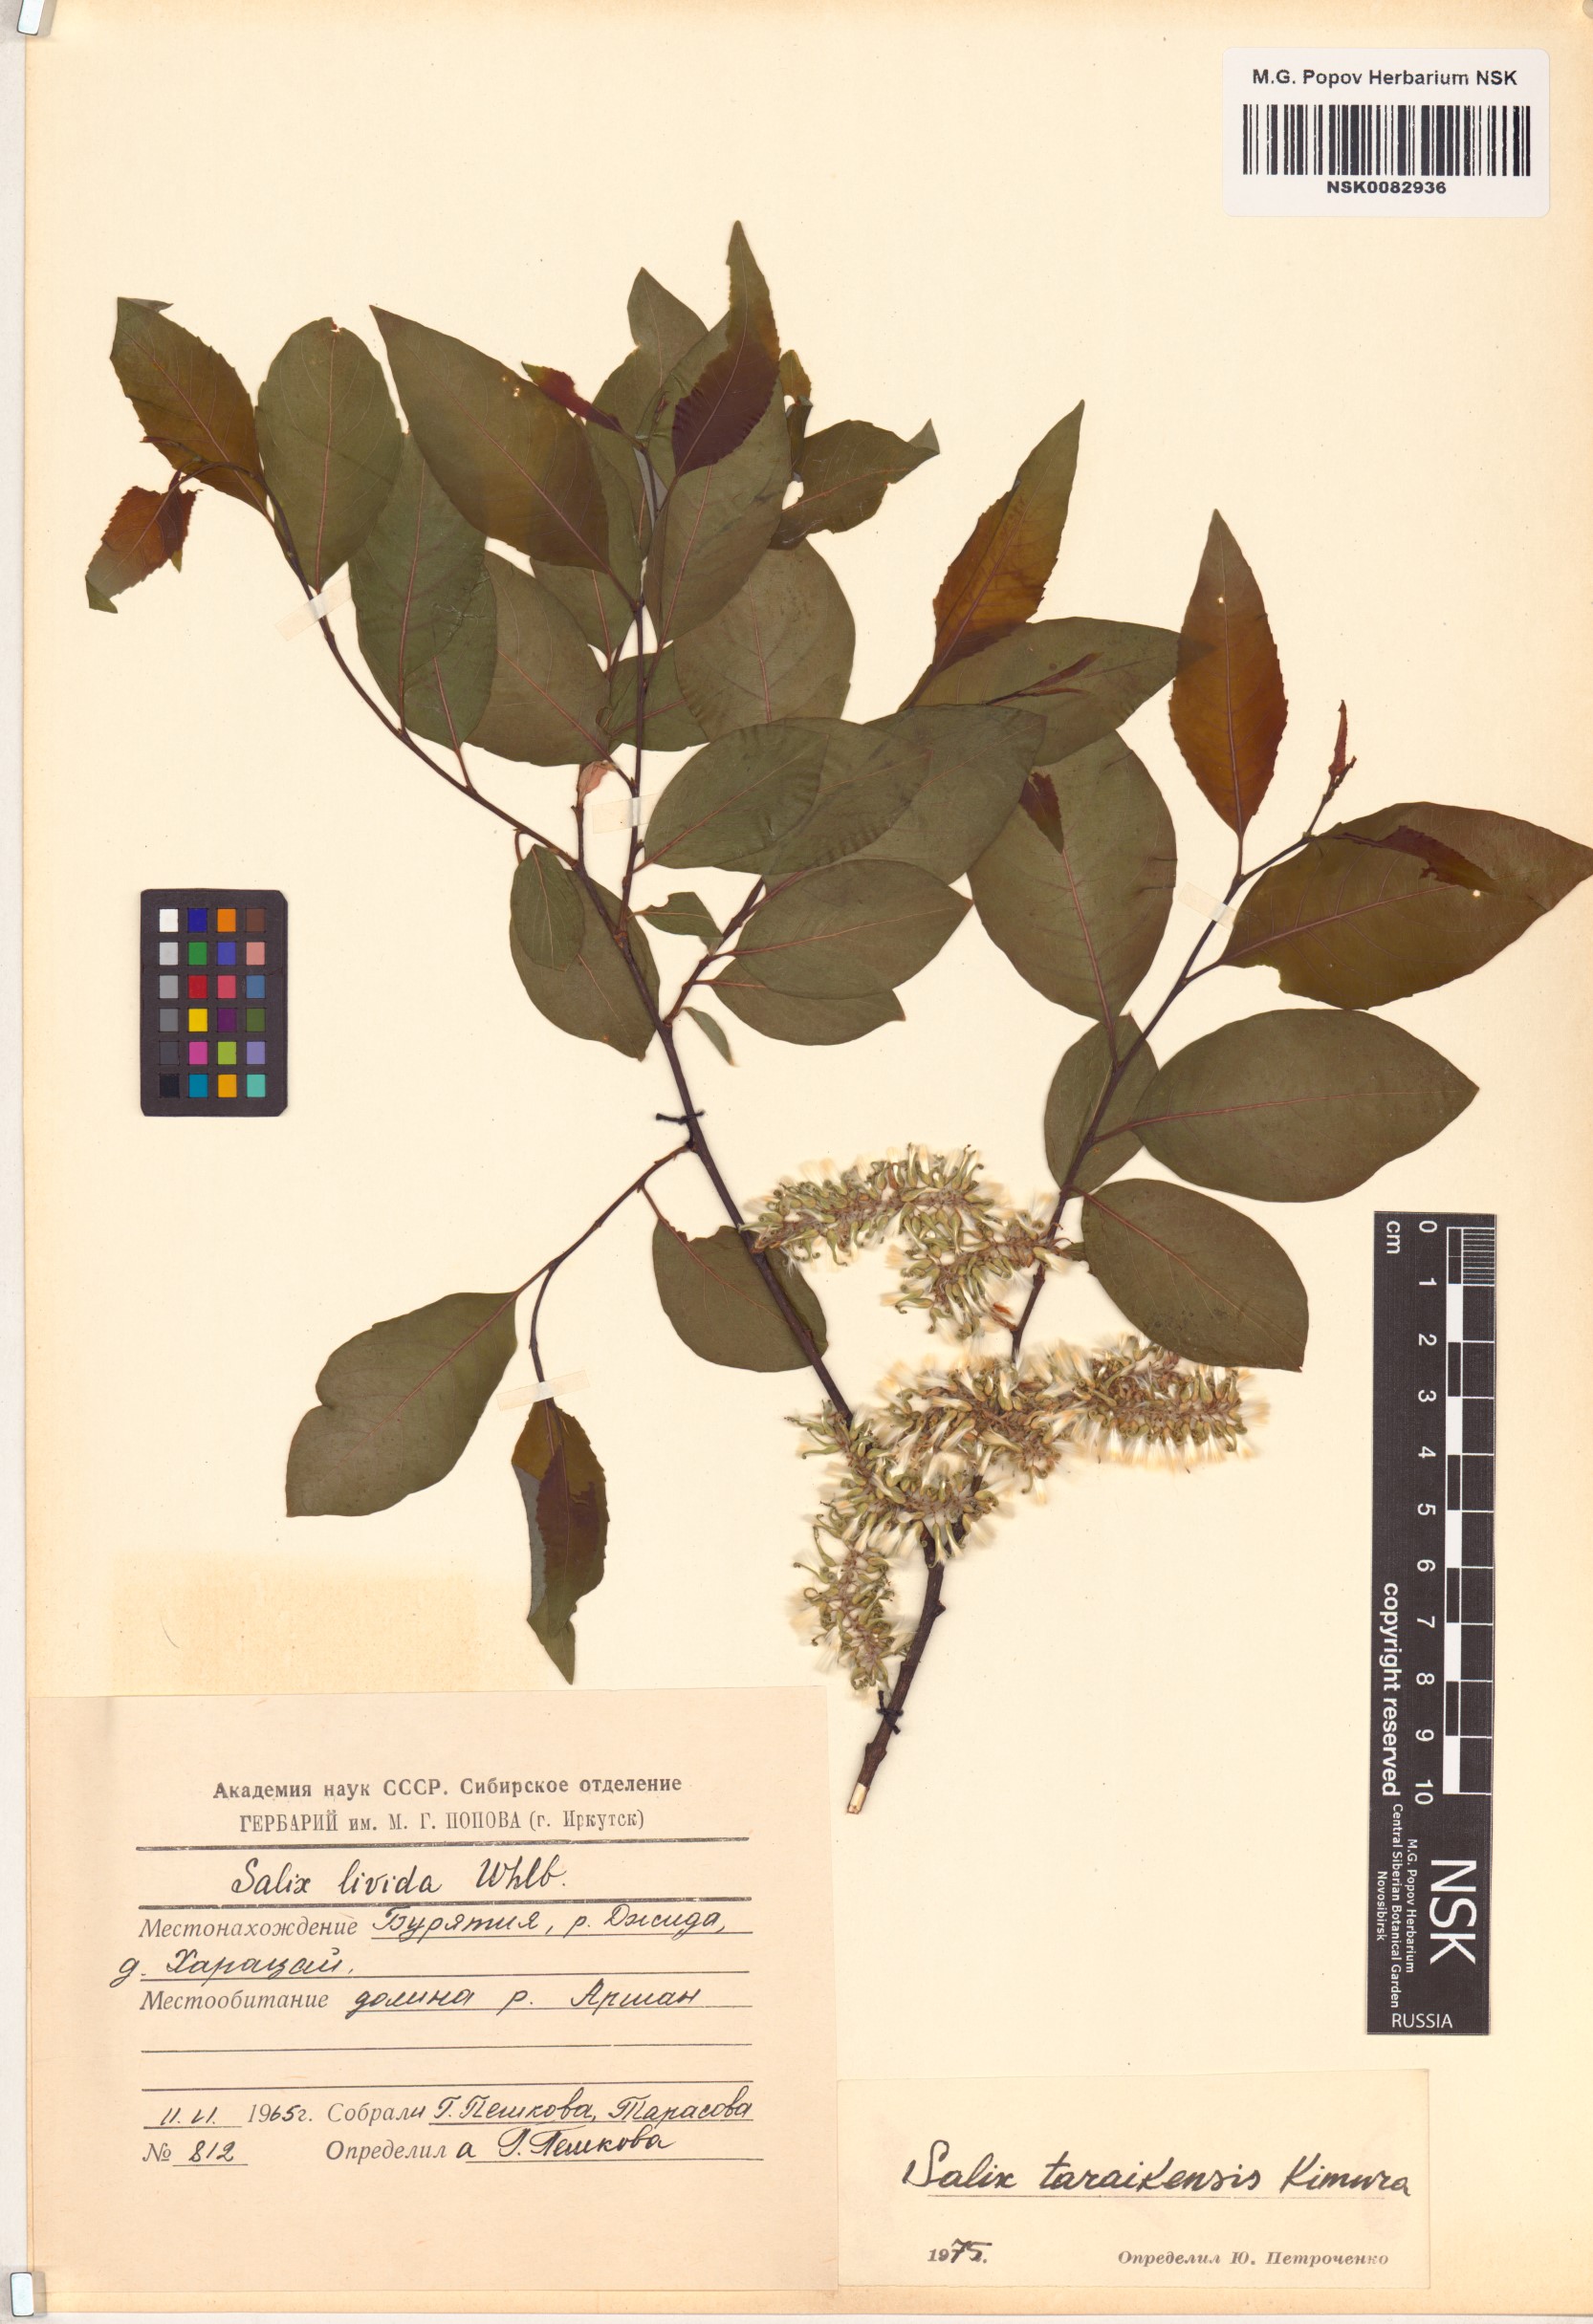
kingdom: Plantae
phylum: Tracheophyta
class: Magnoliopsida
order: Malpighiales
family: Salicaceae
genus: Salix
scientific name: Salix taraikensis
